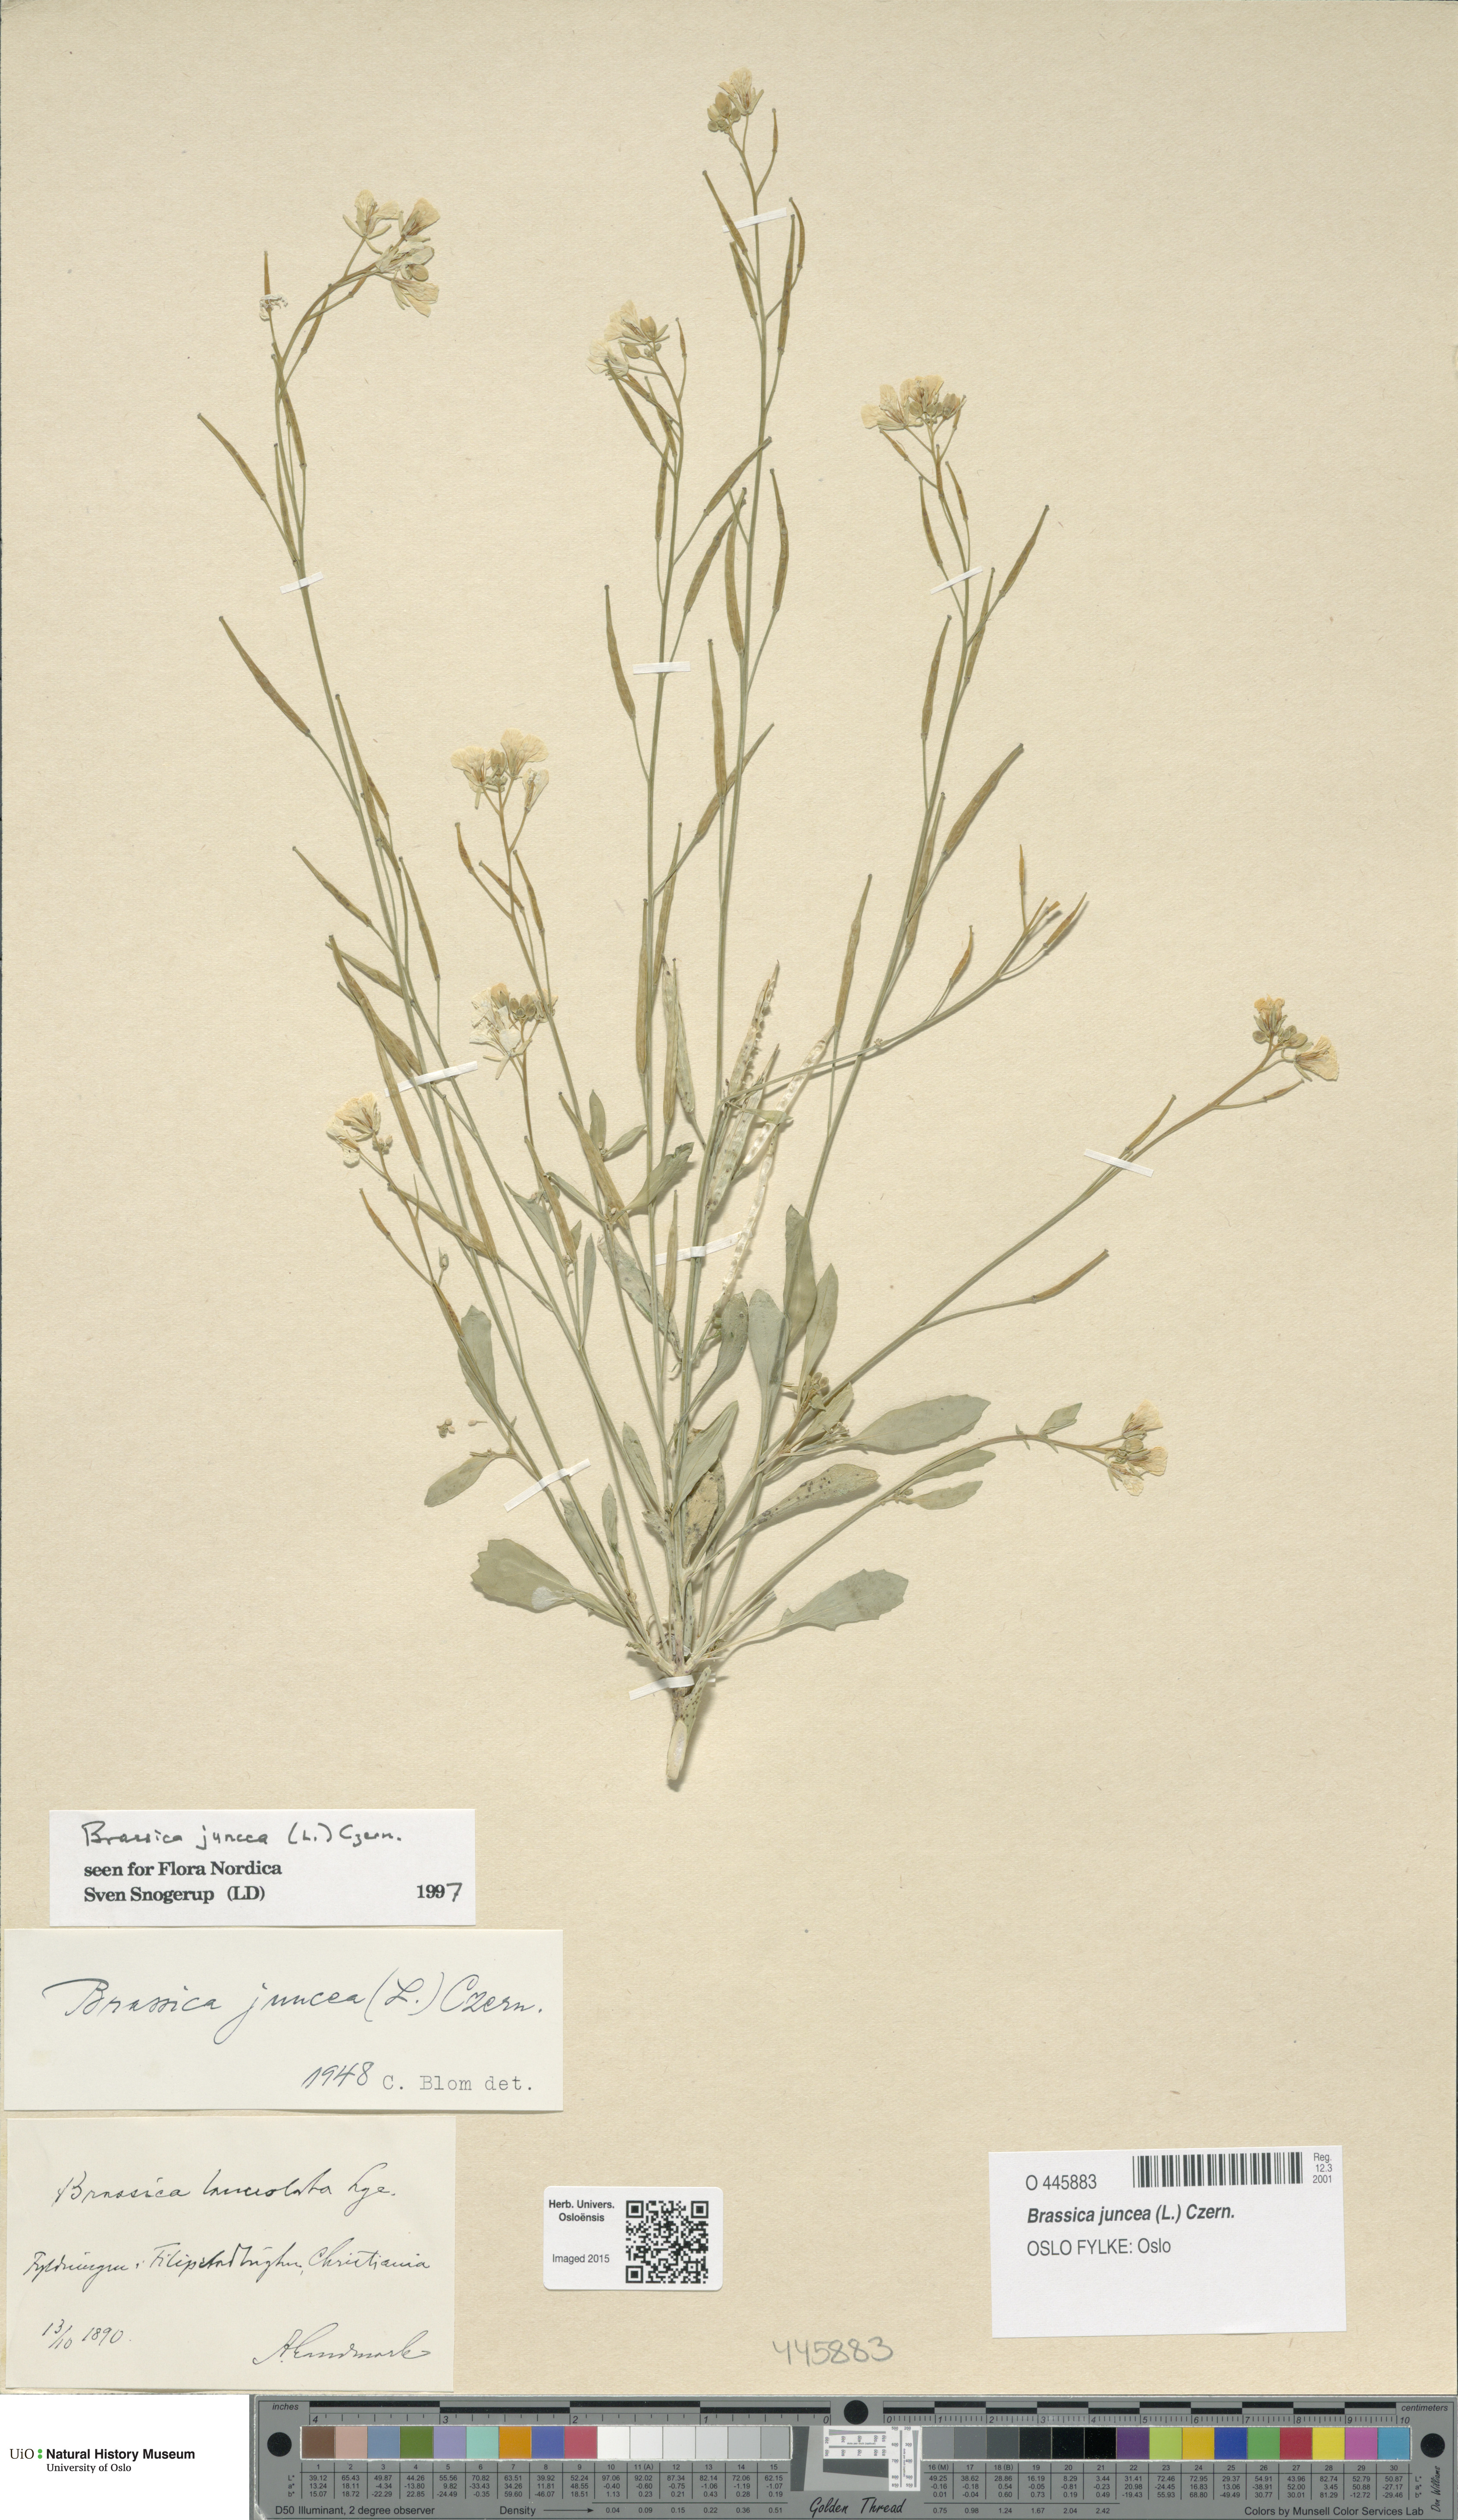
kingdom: Plantae
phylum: Tracheophyta
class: Magnoliopsida
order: Brassicales
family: Brassicaceae
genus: Brassica
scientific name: Brassica juncea
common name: Brown mustard
